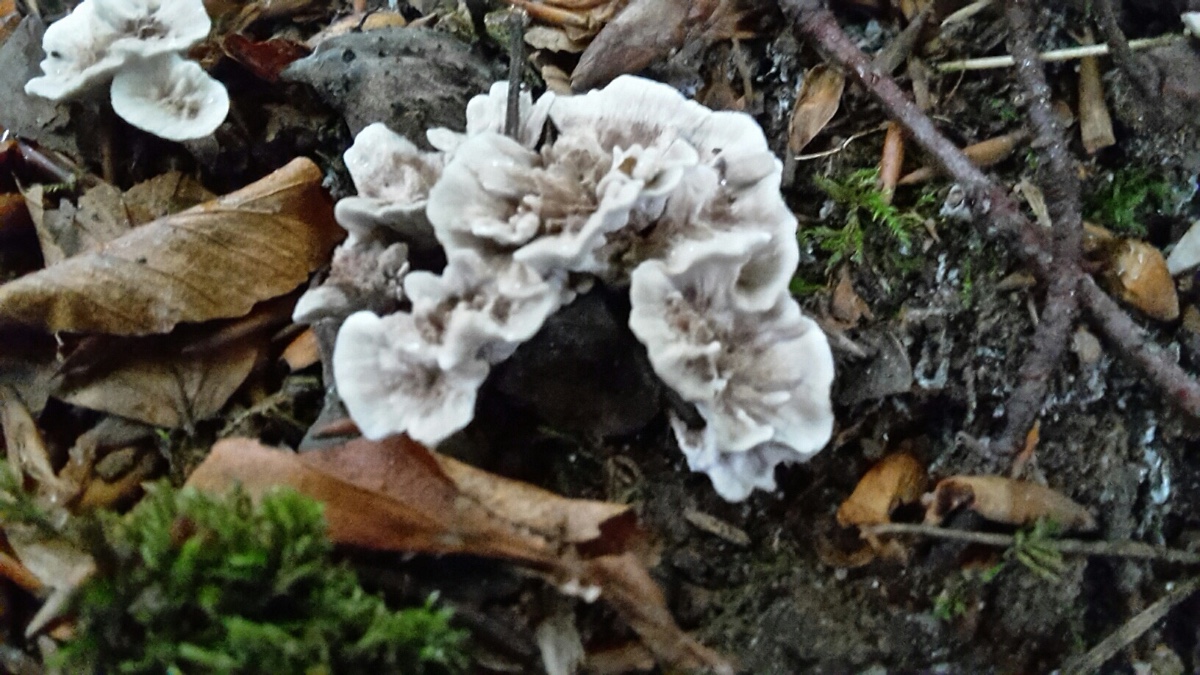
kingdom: Fungi
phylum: Basidiomycota
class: Agaricomycetes
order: Thelephorales
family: Thelephoraceae
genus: Phellodon
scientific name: Phellodon confluens
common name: pjaltet duftpigsvamp
